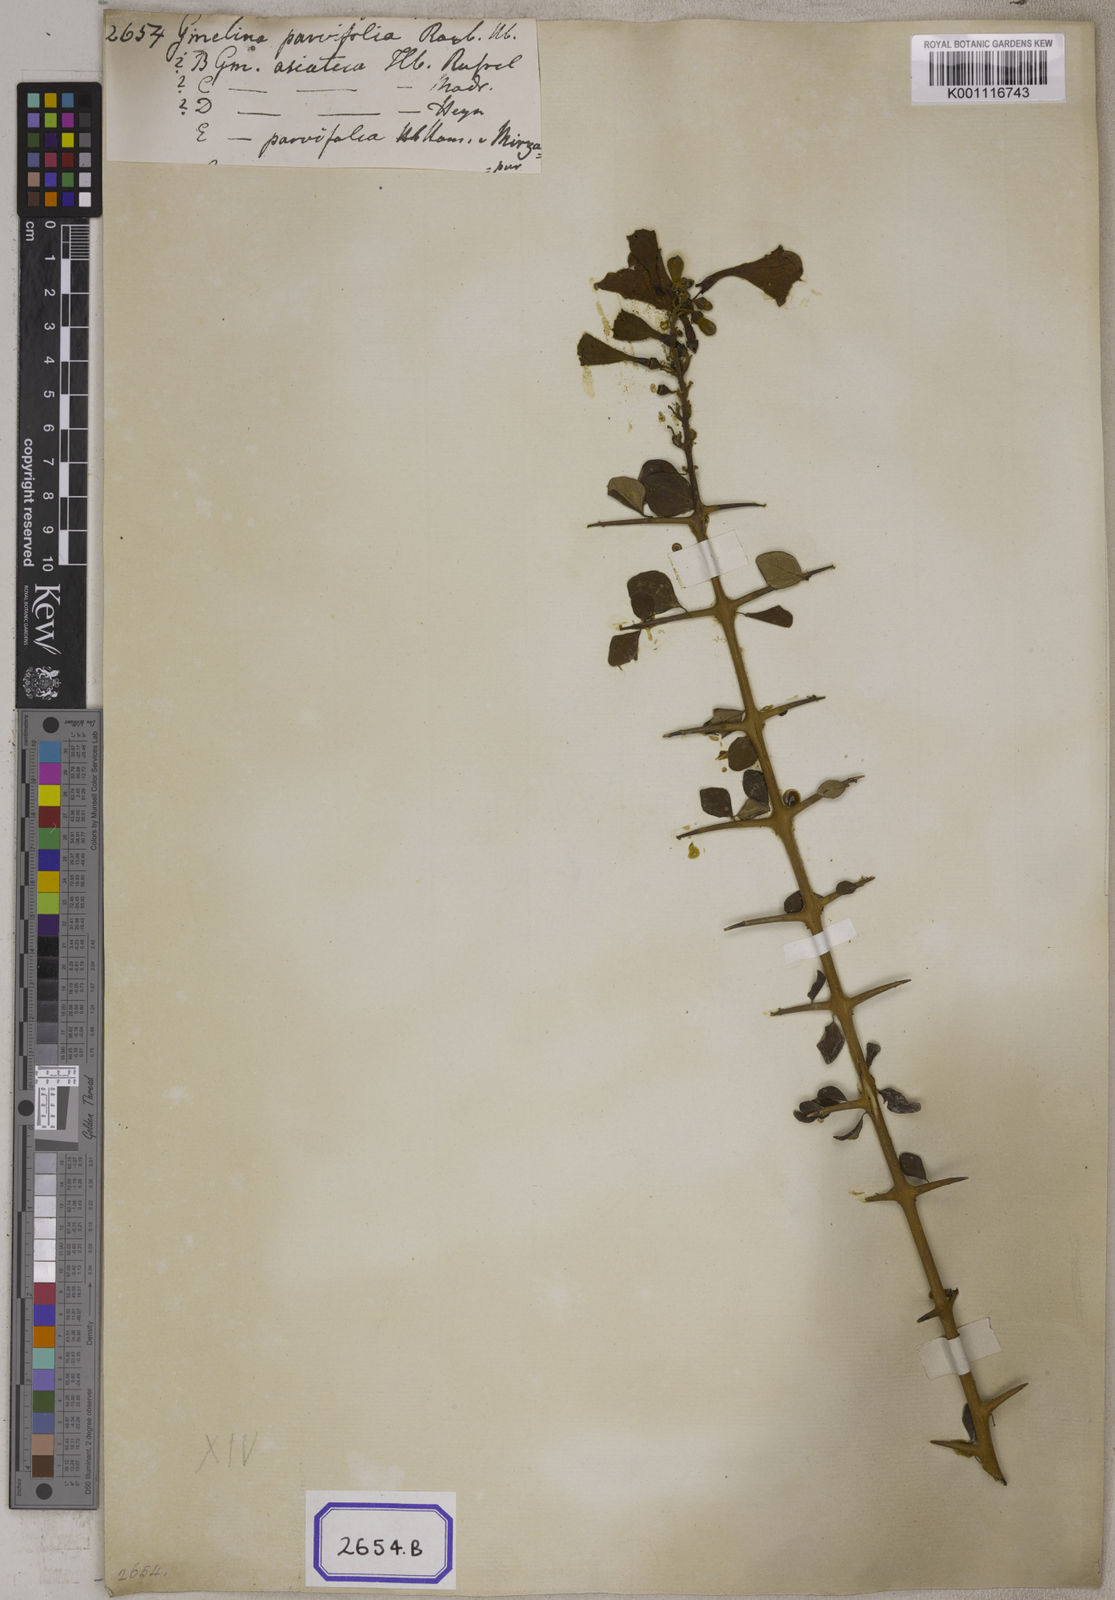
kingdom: Plantae
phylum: Tracheophyta
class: Magnoliopsida
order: Lamiales
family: Lamiaceae
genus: Gmelina
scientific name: Gmelina asiatica
